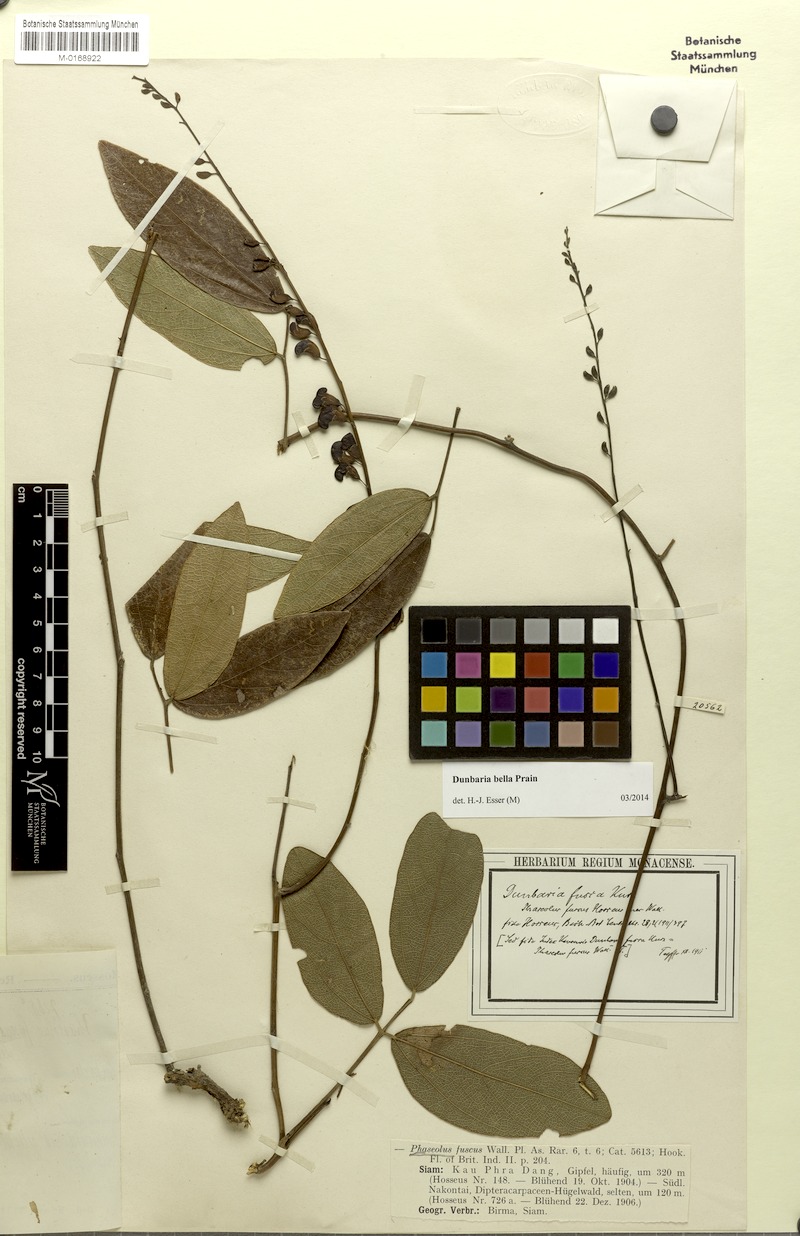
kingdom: Plantae
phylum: Tracheophyta
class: Magnoliopsida
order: Fabales
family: Fabaceae
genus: Dunbaria
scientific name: Dunbaria bella
